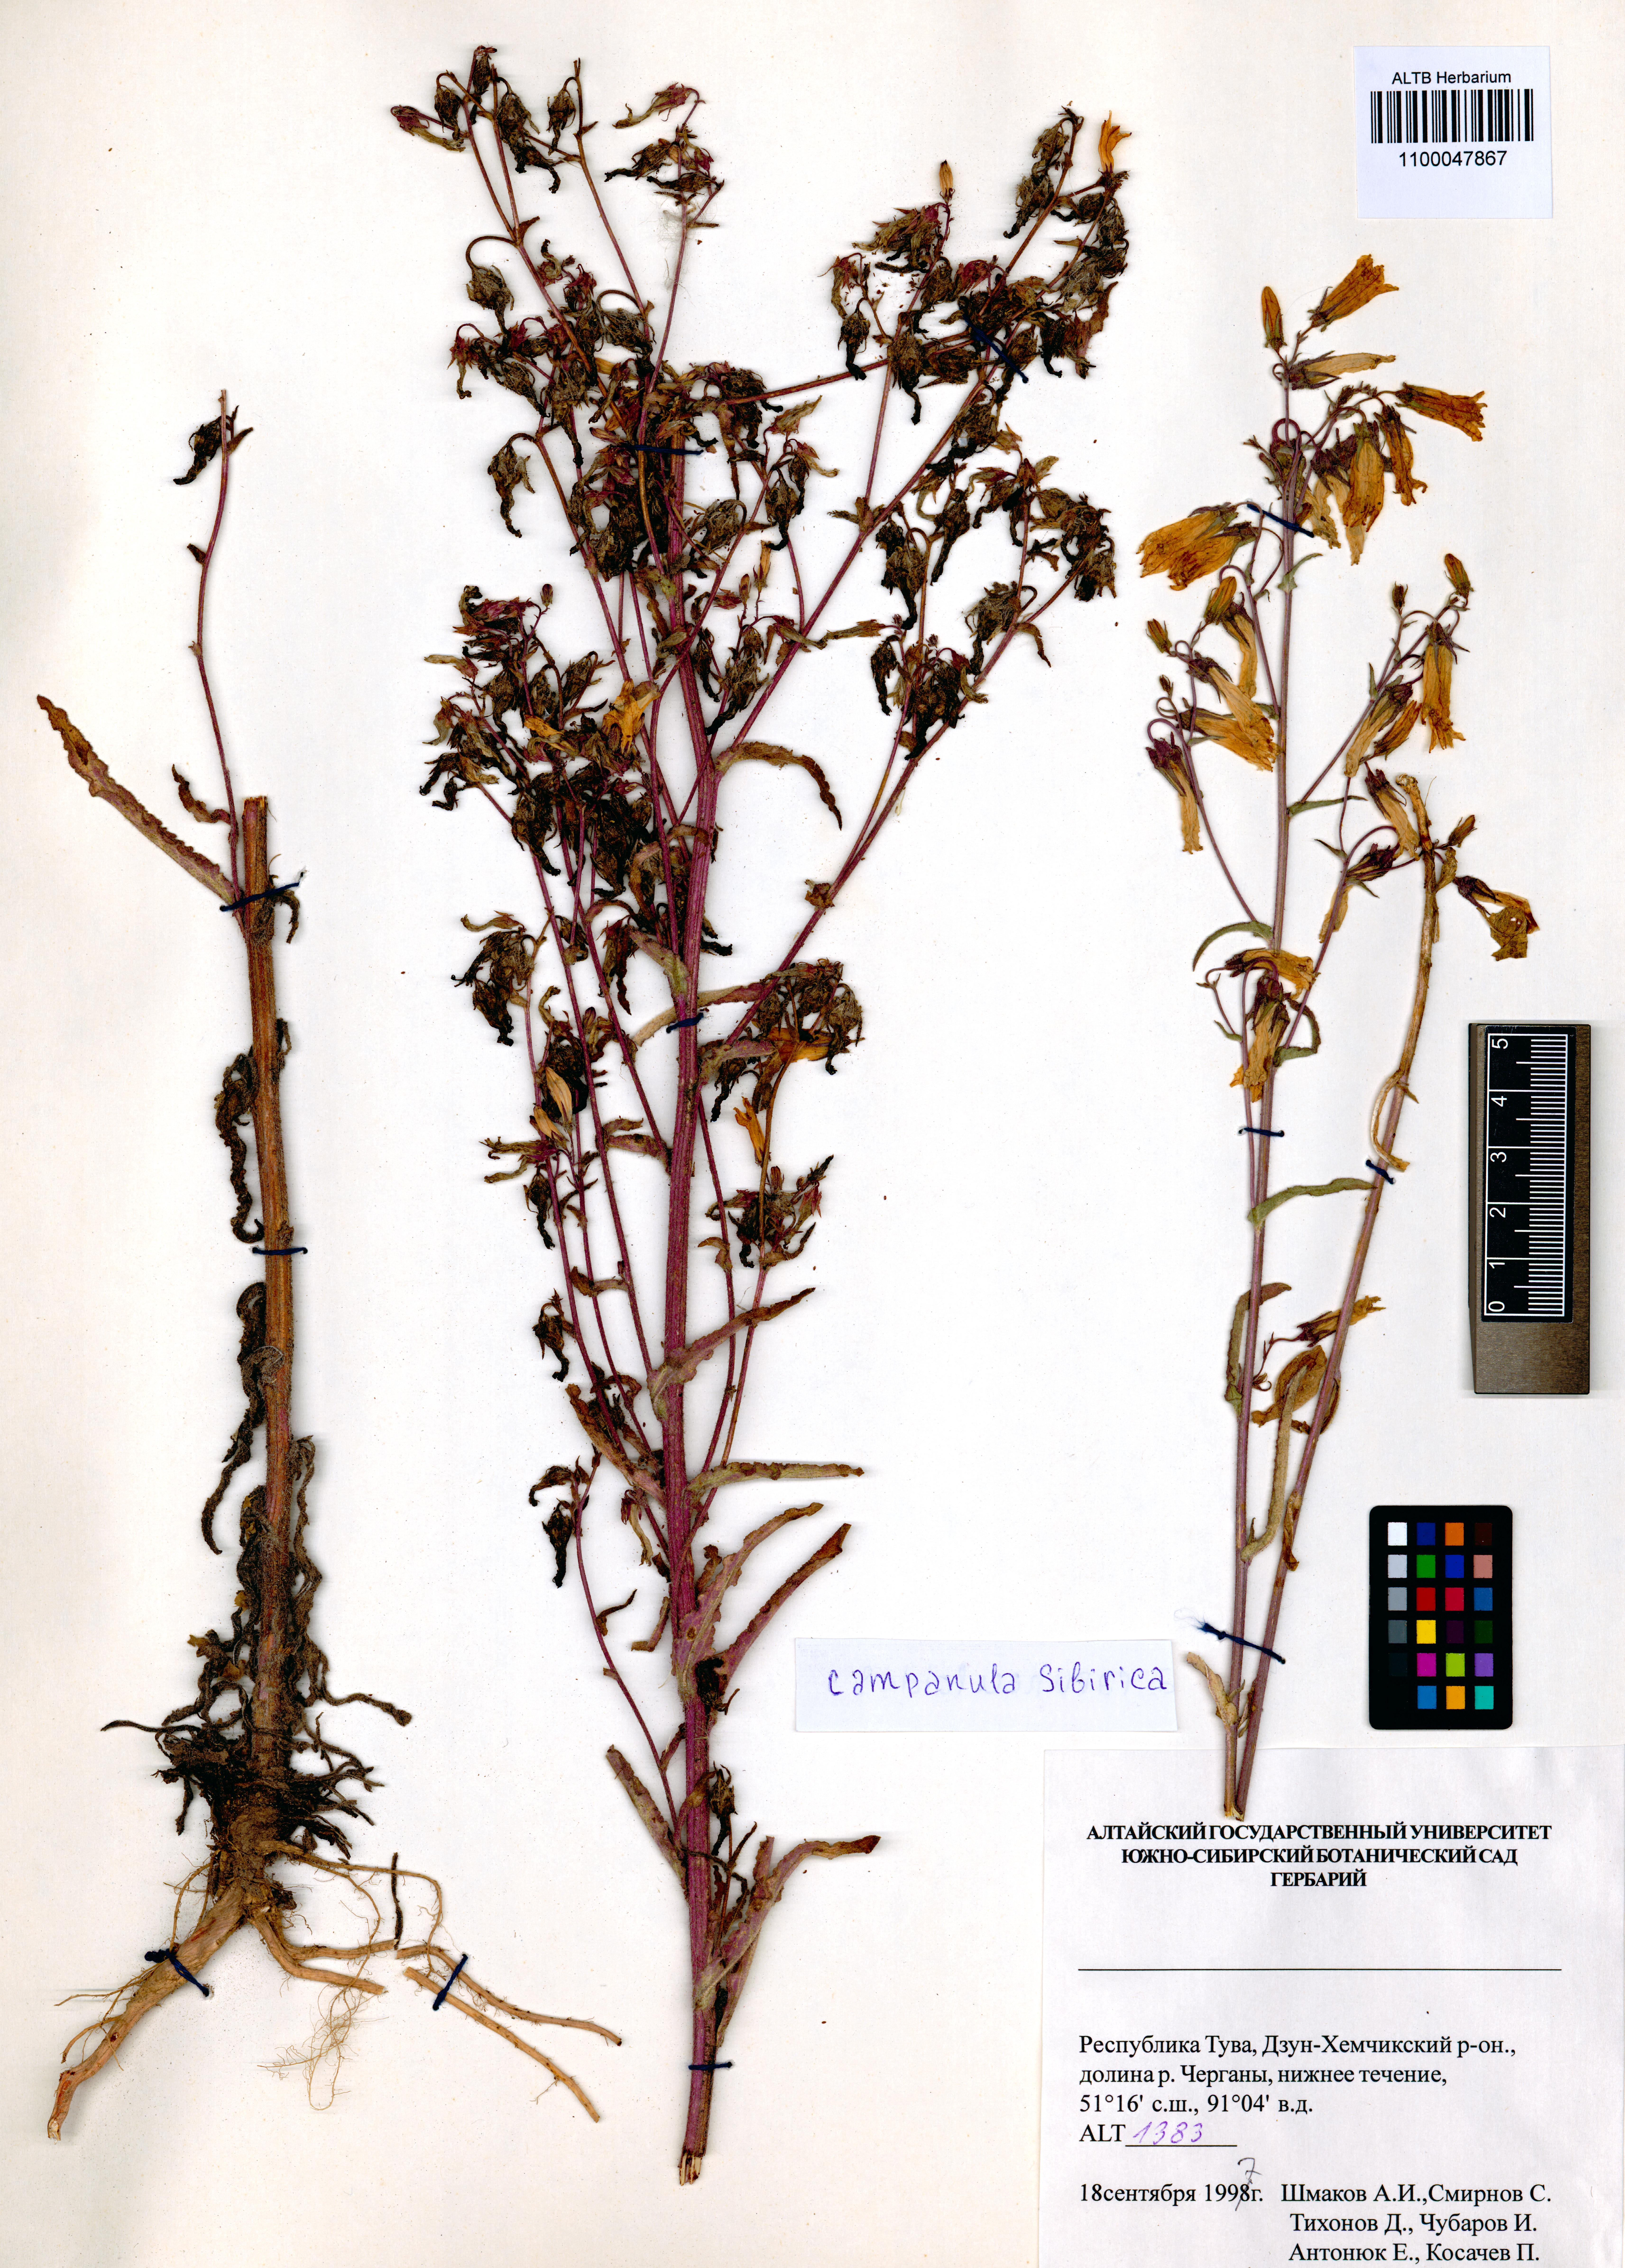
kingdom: Plantae
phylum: Tracheophyta
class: Magnoliopsida
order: Asterales
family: Campanulaceae
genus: Campanula
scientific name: Campanula sibirica
